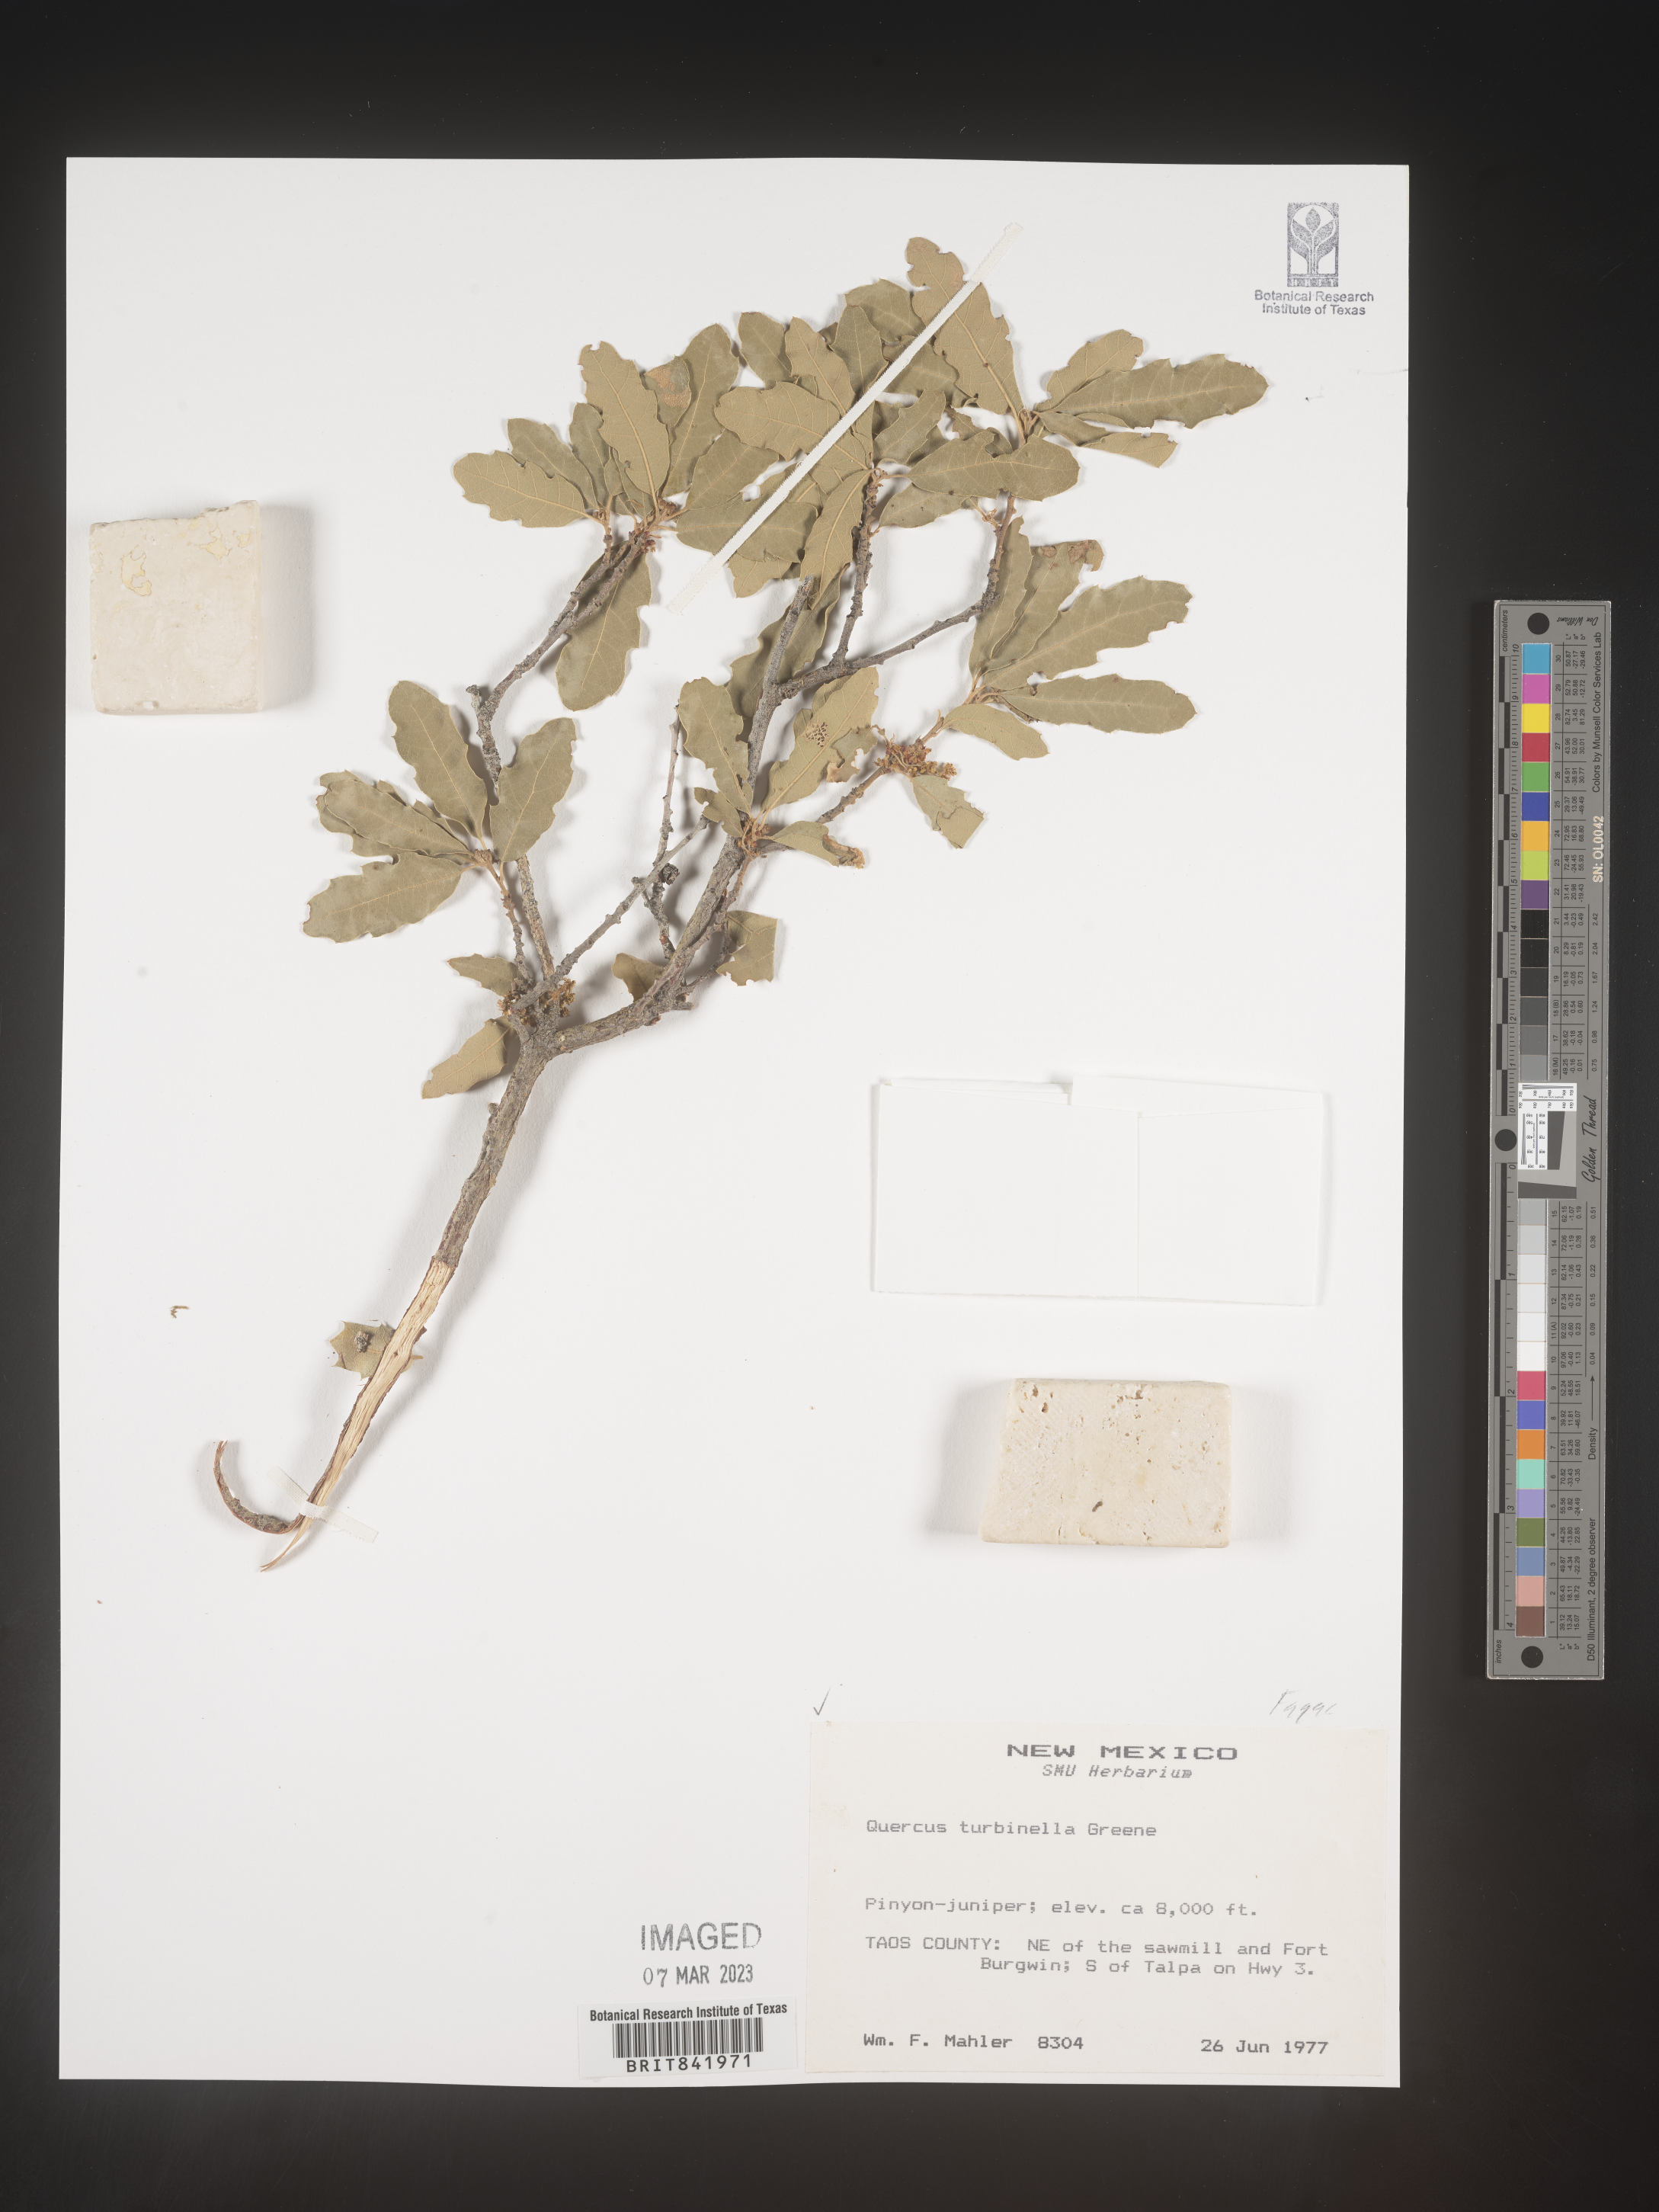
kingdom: Plantae
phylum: Tracheophyta
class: Magnoliopsida
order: Fagales
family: Fagaceae
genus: Quercus
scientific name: Quercus turbinella
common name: Sonoran scrub oak
